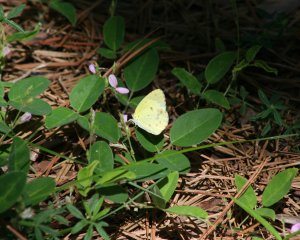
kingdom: Animalia
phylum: Arthropoda
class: Insecta
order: Lepidoptera
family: Pieridae
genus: Pyrisitia
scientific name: Pyrisitia lisa
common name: Little Yellow
